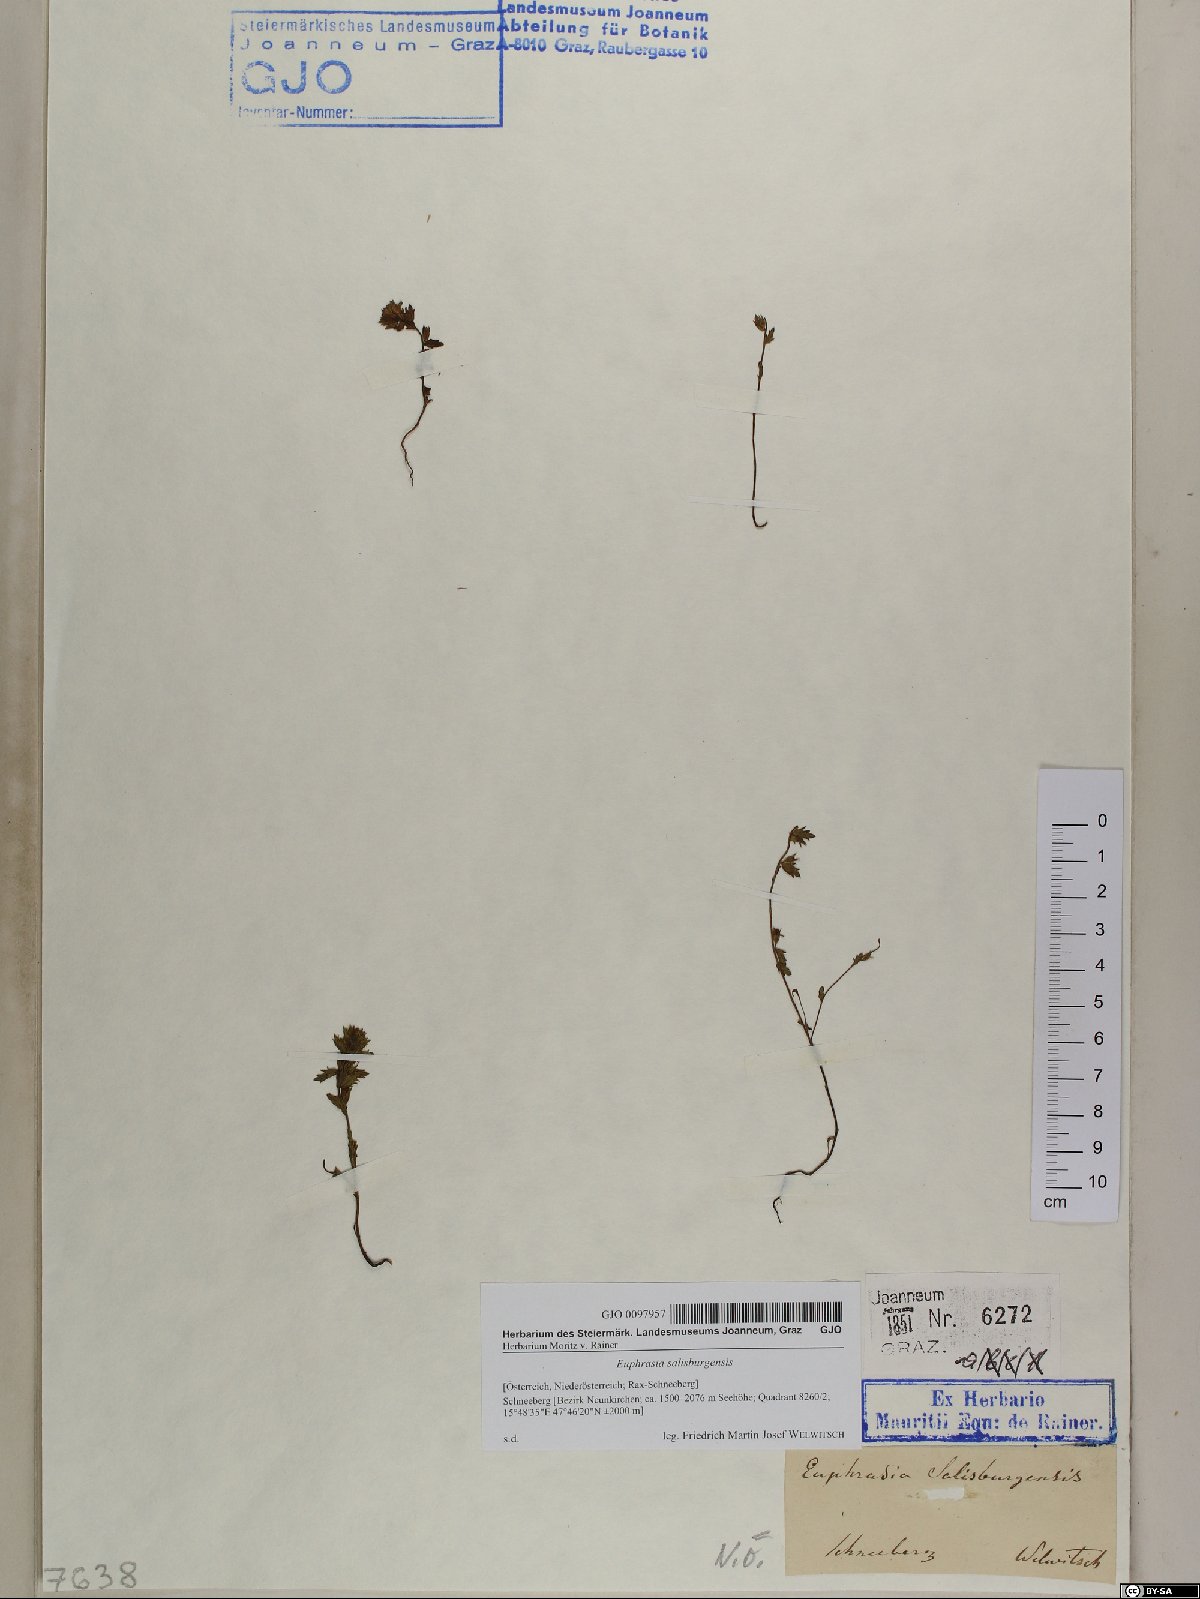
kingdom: Plantae
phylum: Tracheophyta
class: Magnoliopsida
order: Lamiales
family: Orobanchaceae
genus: Euphrasia
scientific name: Euphrasia salisburgensis
